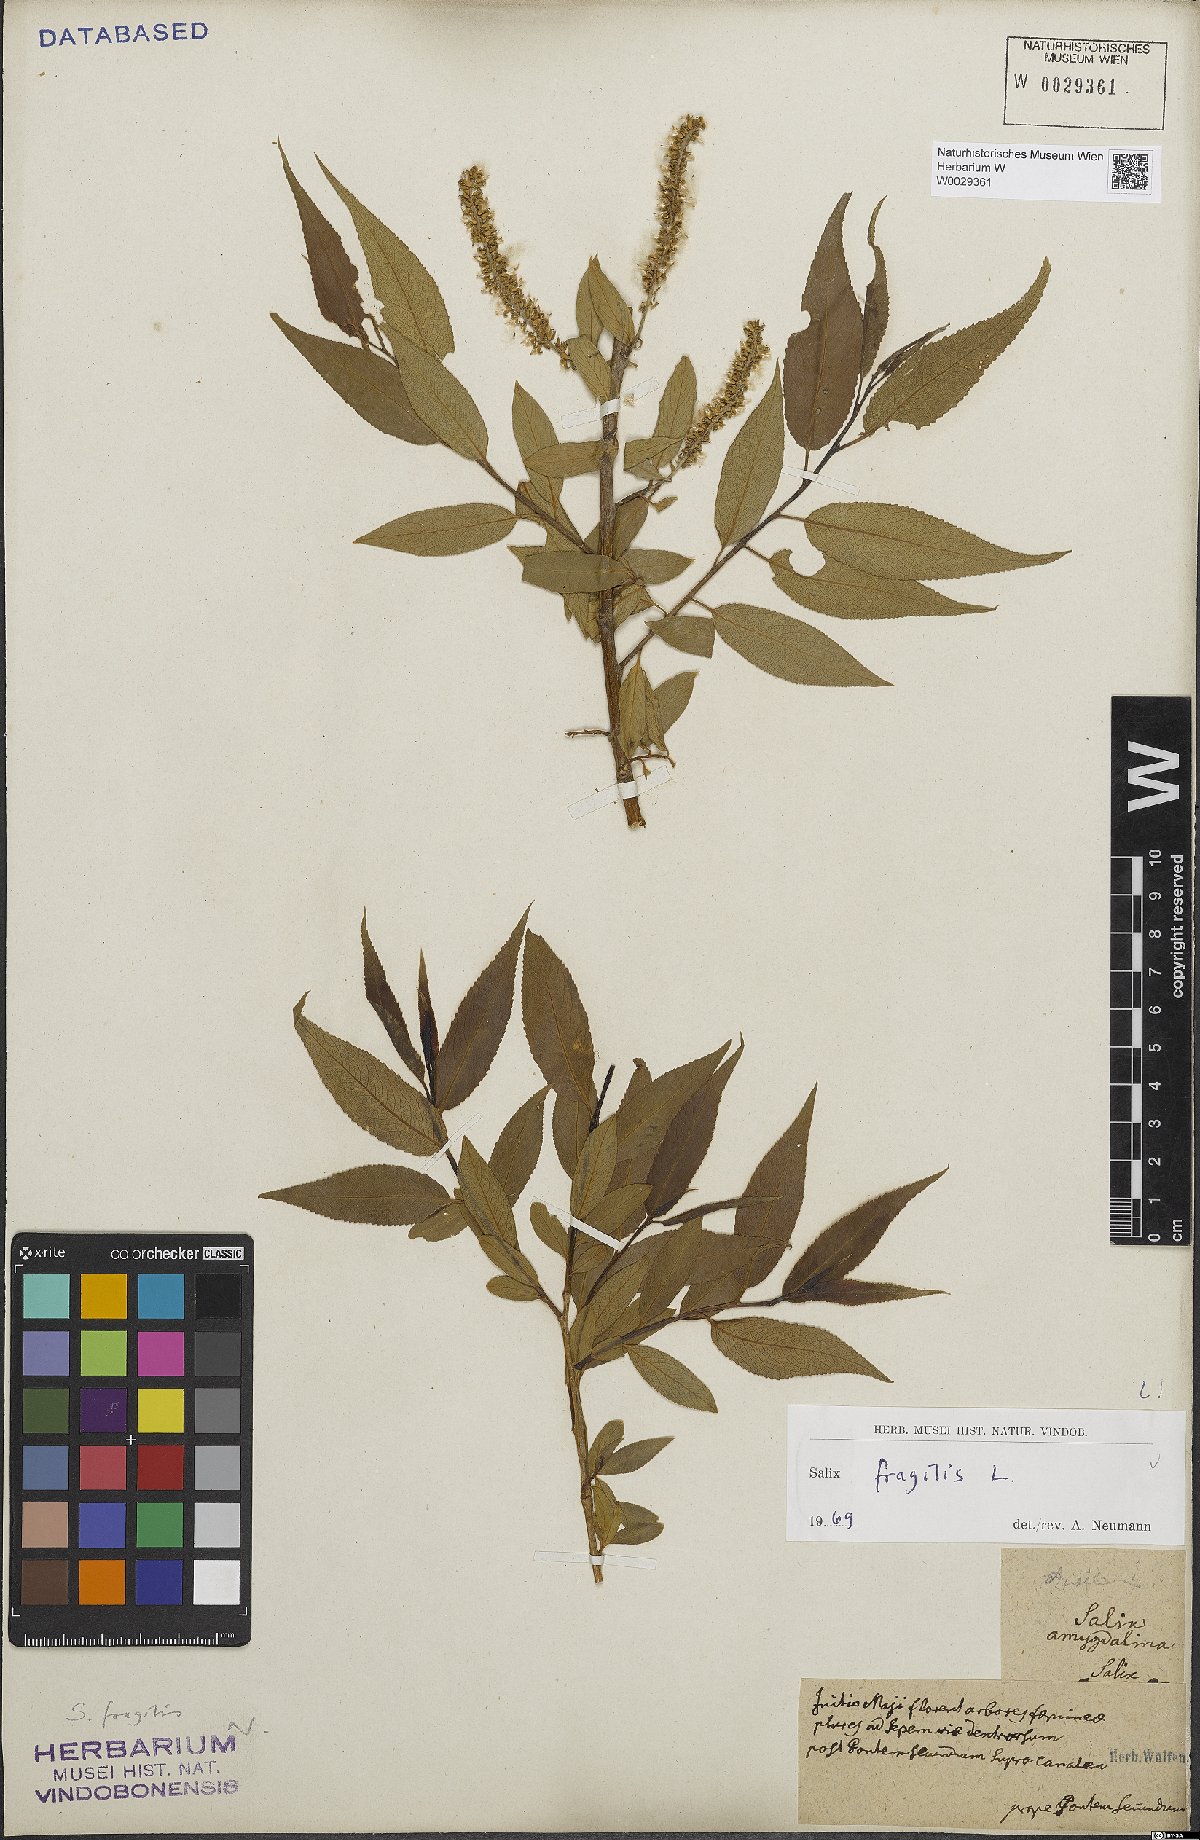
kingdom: Plantae
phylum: Tracheophyta
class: Magnoliopsida
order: Malpighiales
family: Salicaceae
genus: Salix
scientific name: Salix fragilis
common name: Crack willow
